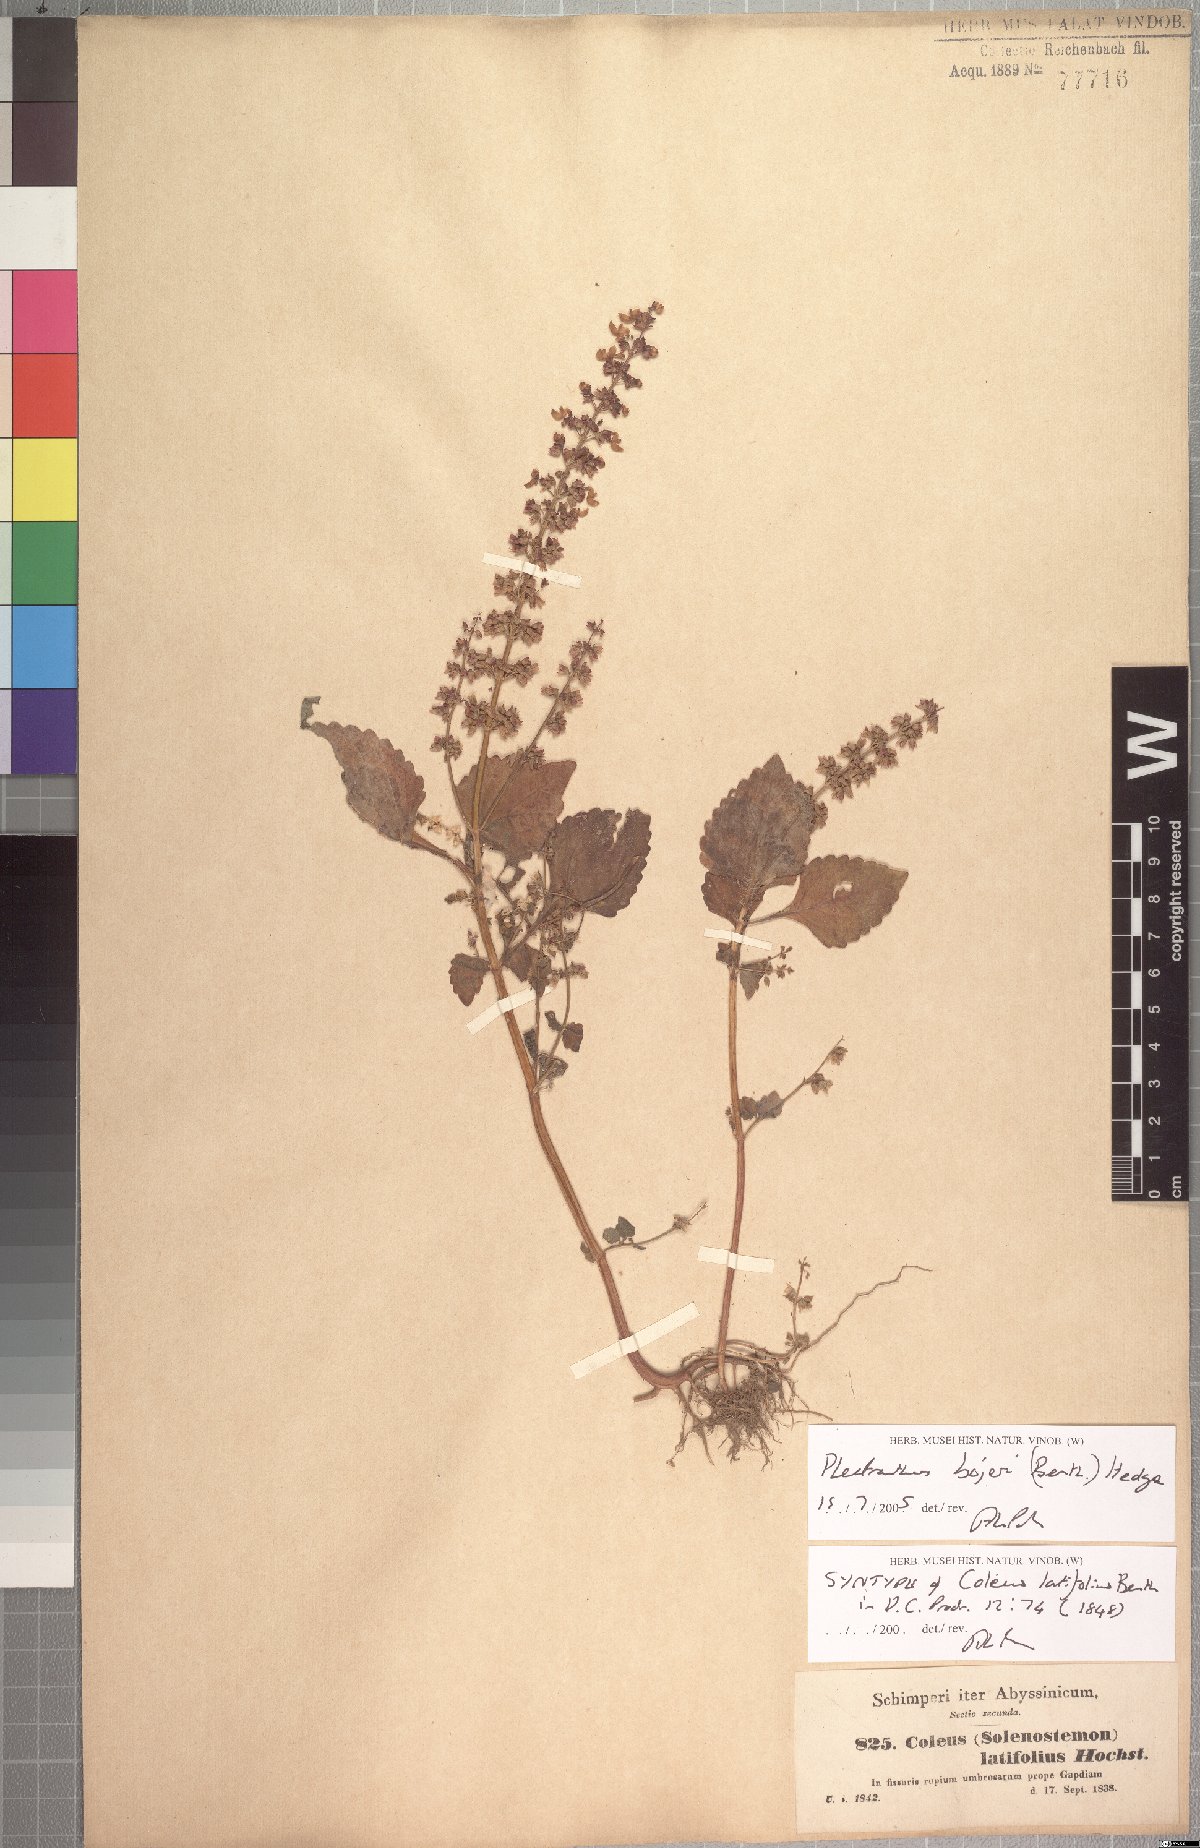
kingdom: Plantae
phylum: Tracheophyta
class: Magnoliopsida
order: Lamiales
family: Lamiaceae
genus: Coleus
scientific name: Coleus bojeri
